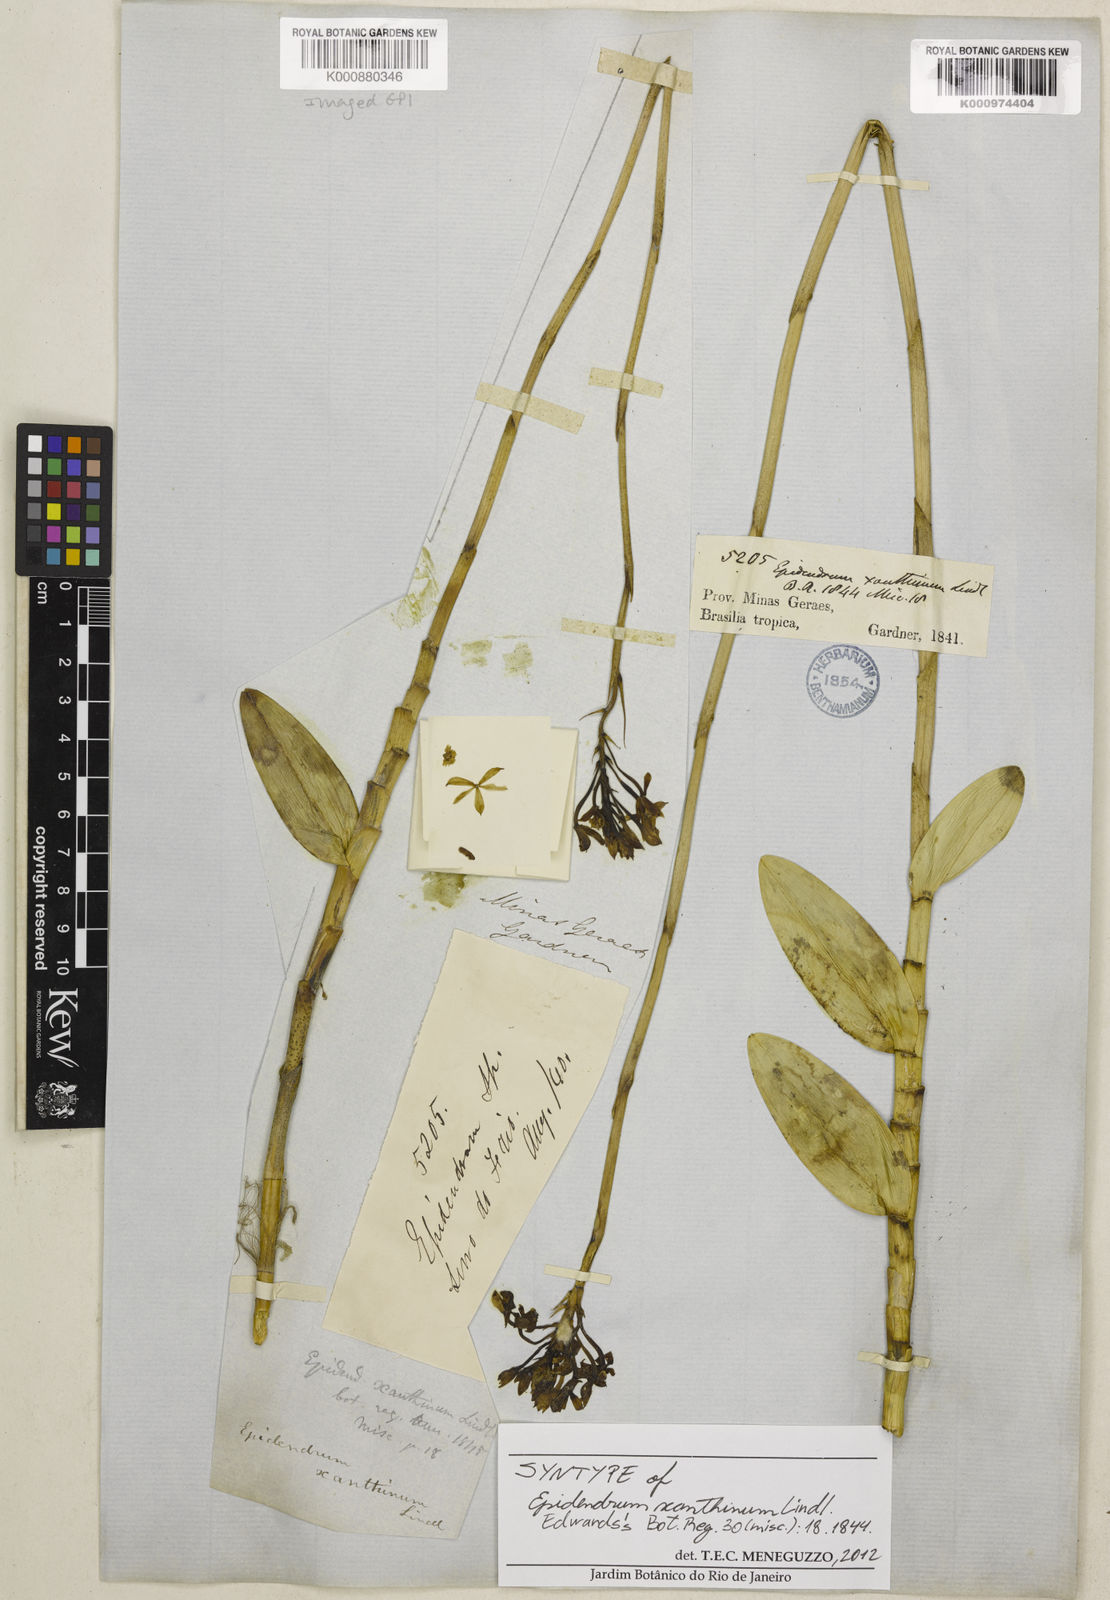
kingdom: Plantae
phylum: Tracheophyta
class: Liliopsida
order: Asparagales
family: Orchidaceae
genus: Epidendrum
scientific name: Epidendrum xanthinum
